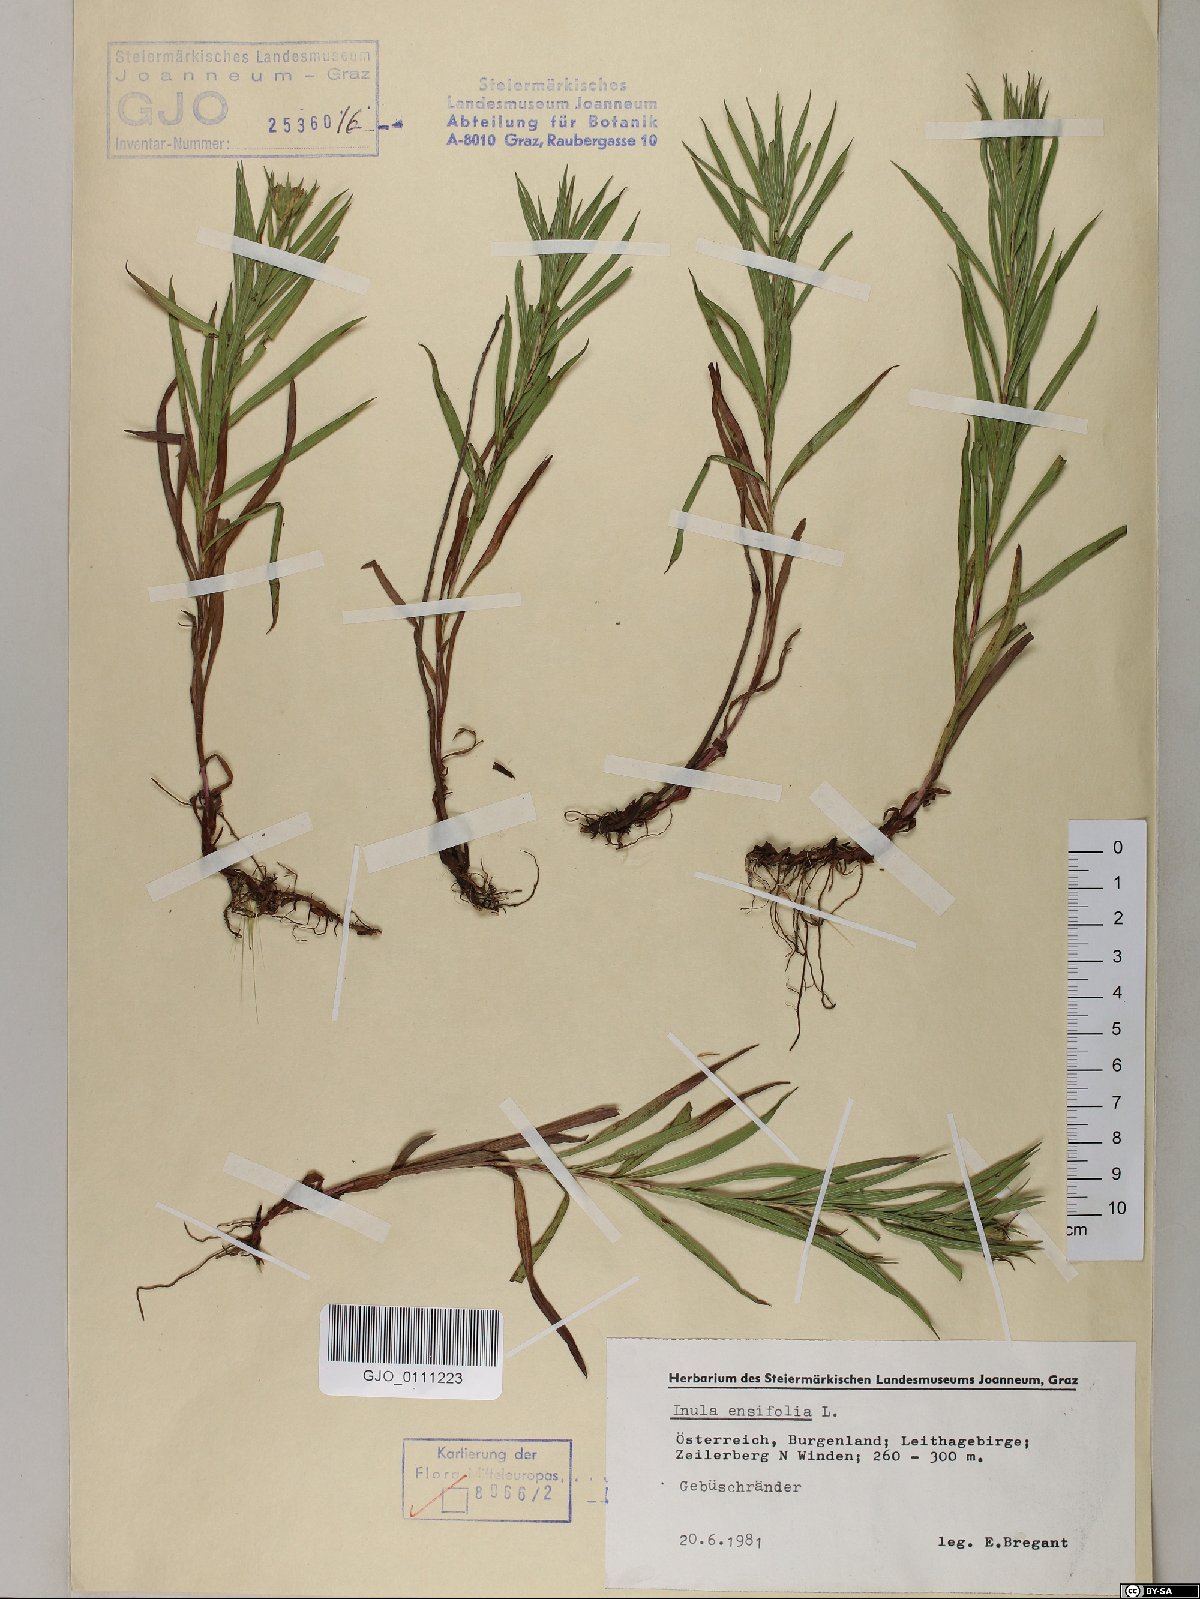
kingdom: Plantae
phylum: Tracheophyta
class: Magnoliopsida
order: Asterales
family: Asteraceae
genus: Pentanema
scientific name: Pentanema ensifolium
